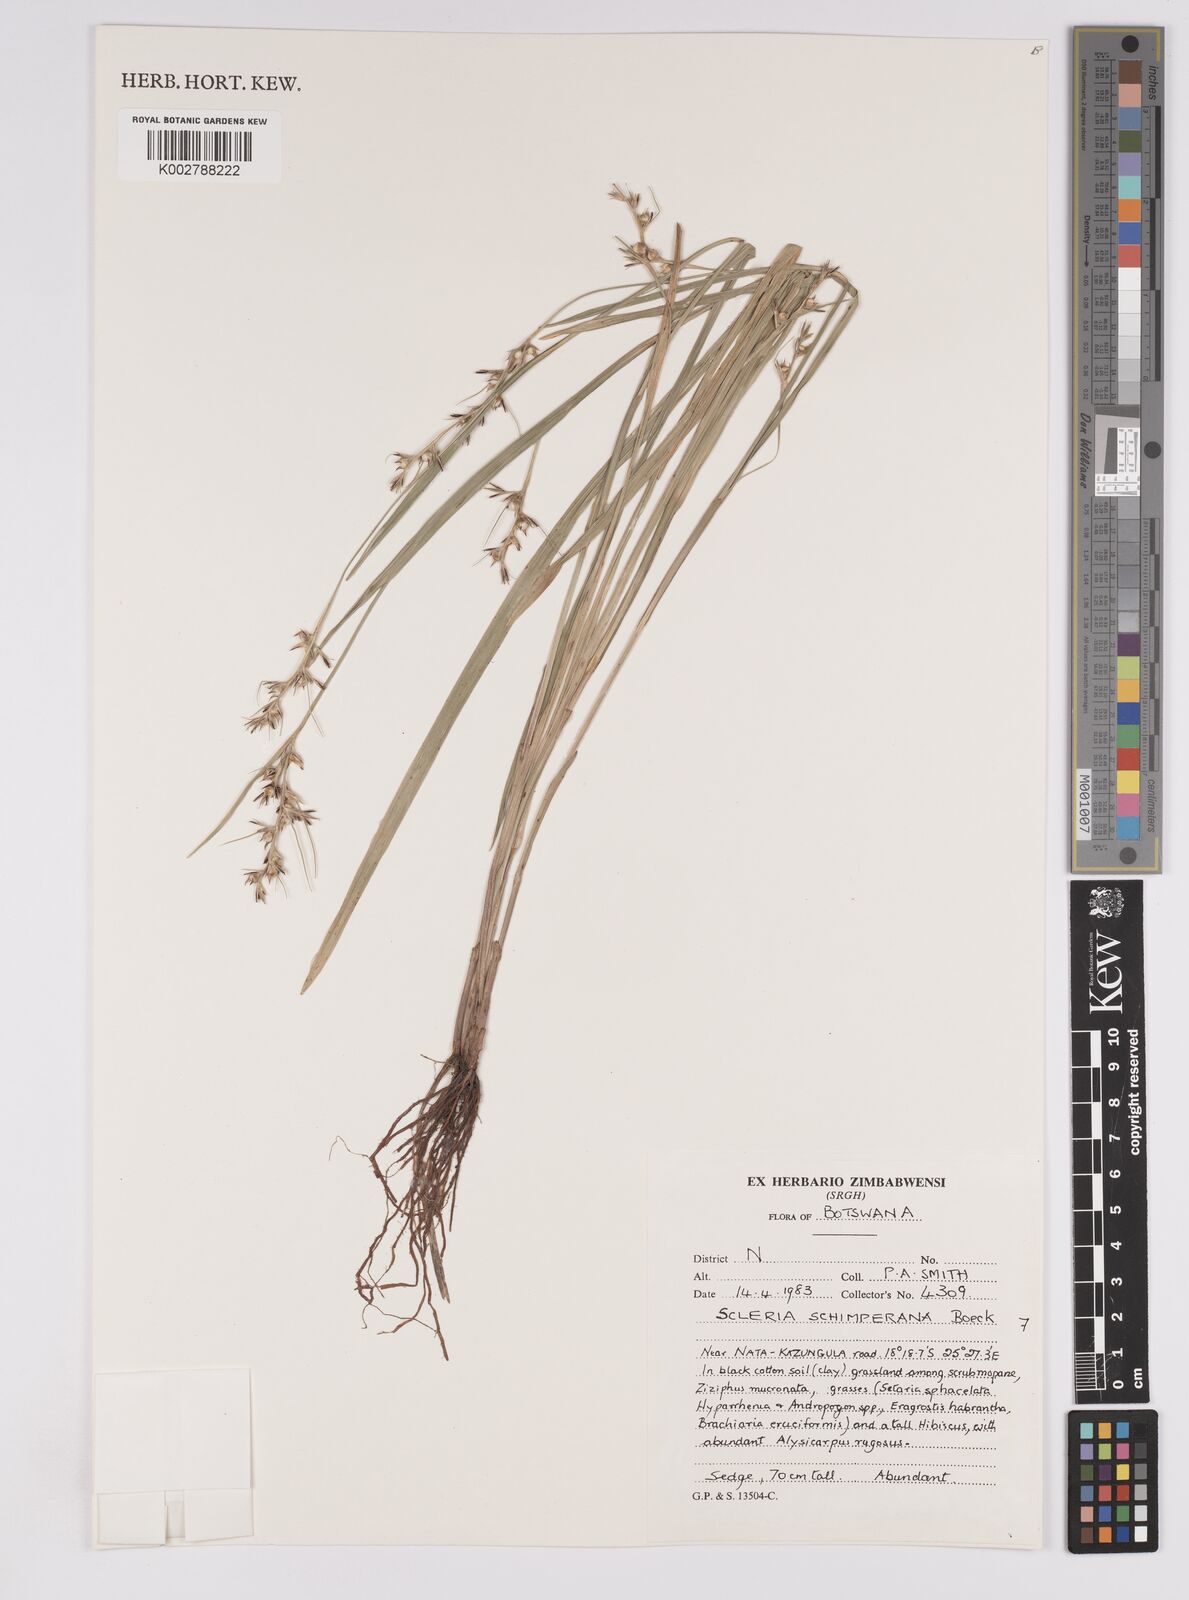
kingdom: Plantae
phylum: Tracheophyta
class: Liliopsida
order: Poales
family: Cyperaceae
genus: Scleria
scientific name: Scleria schimperiana
